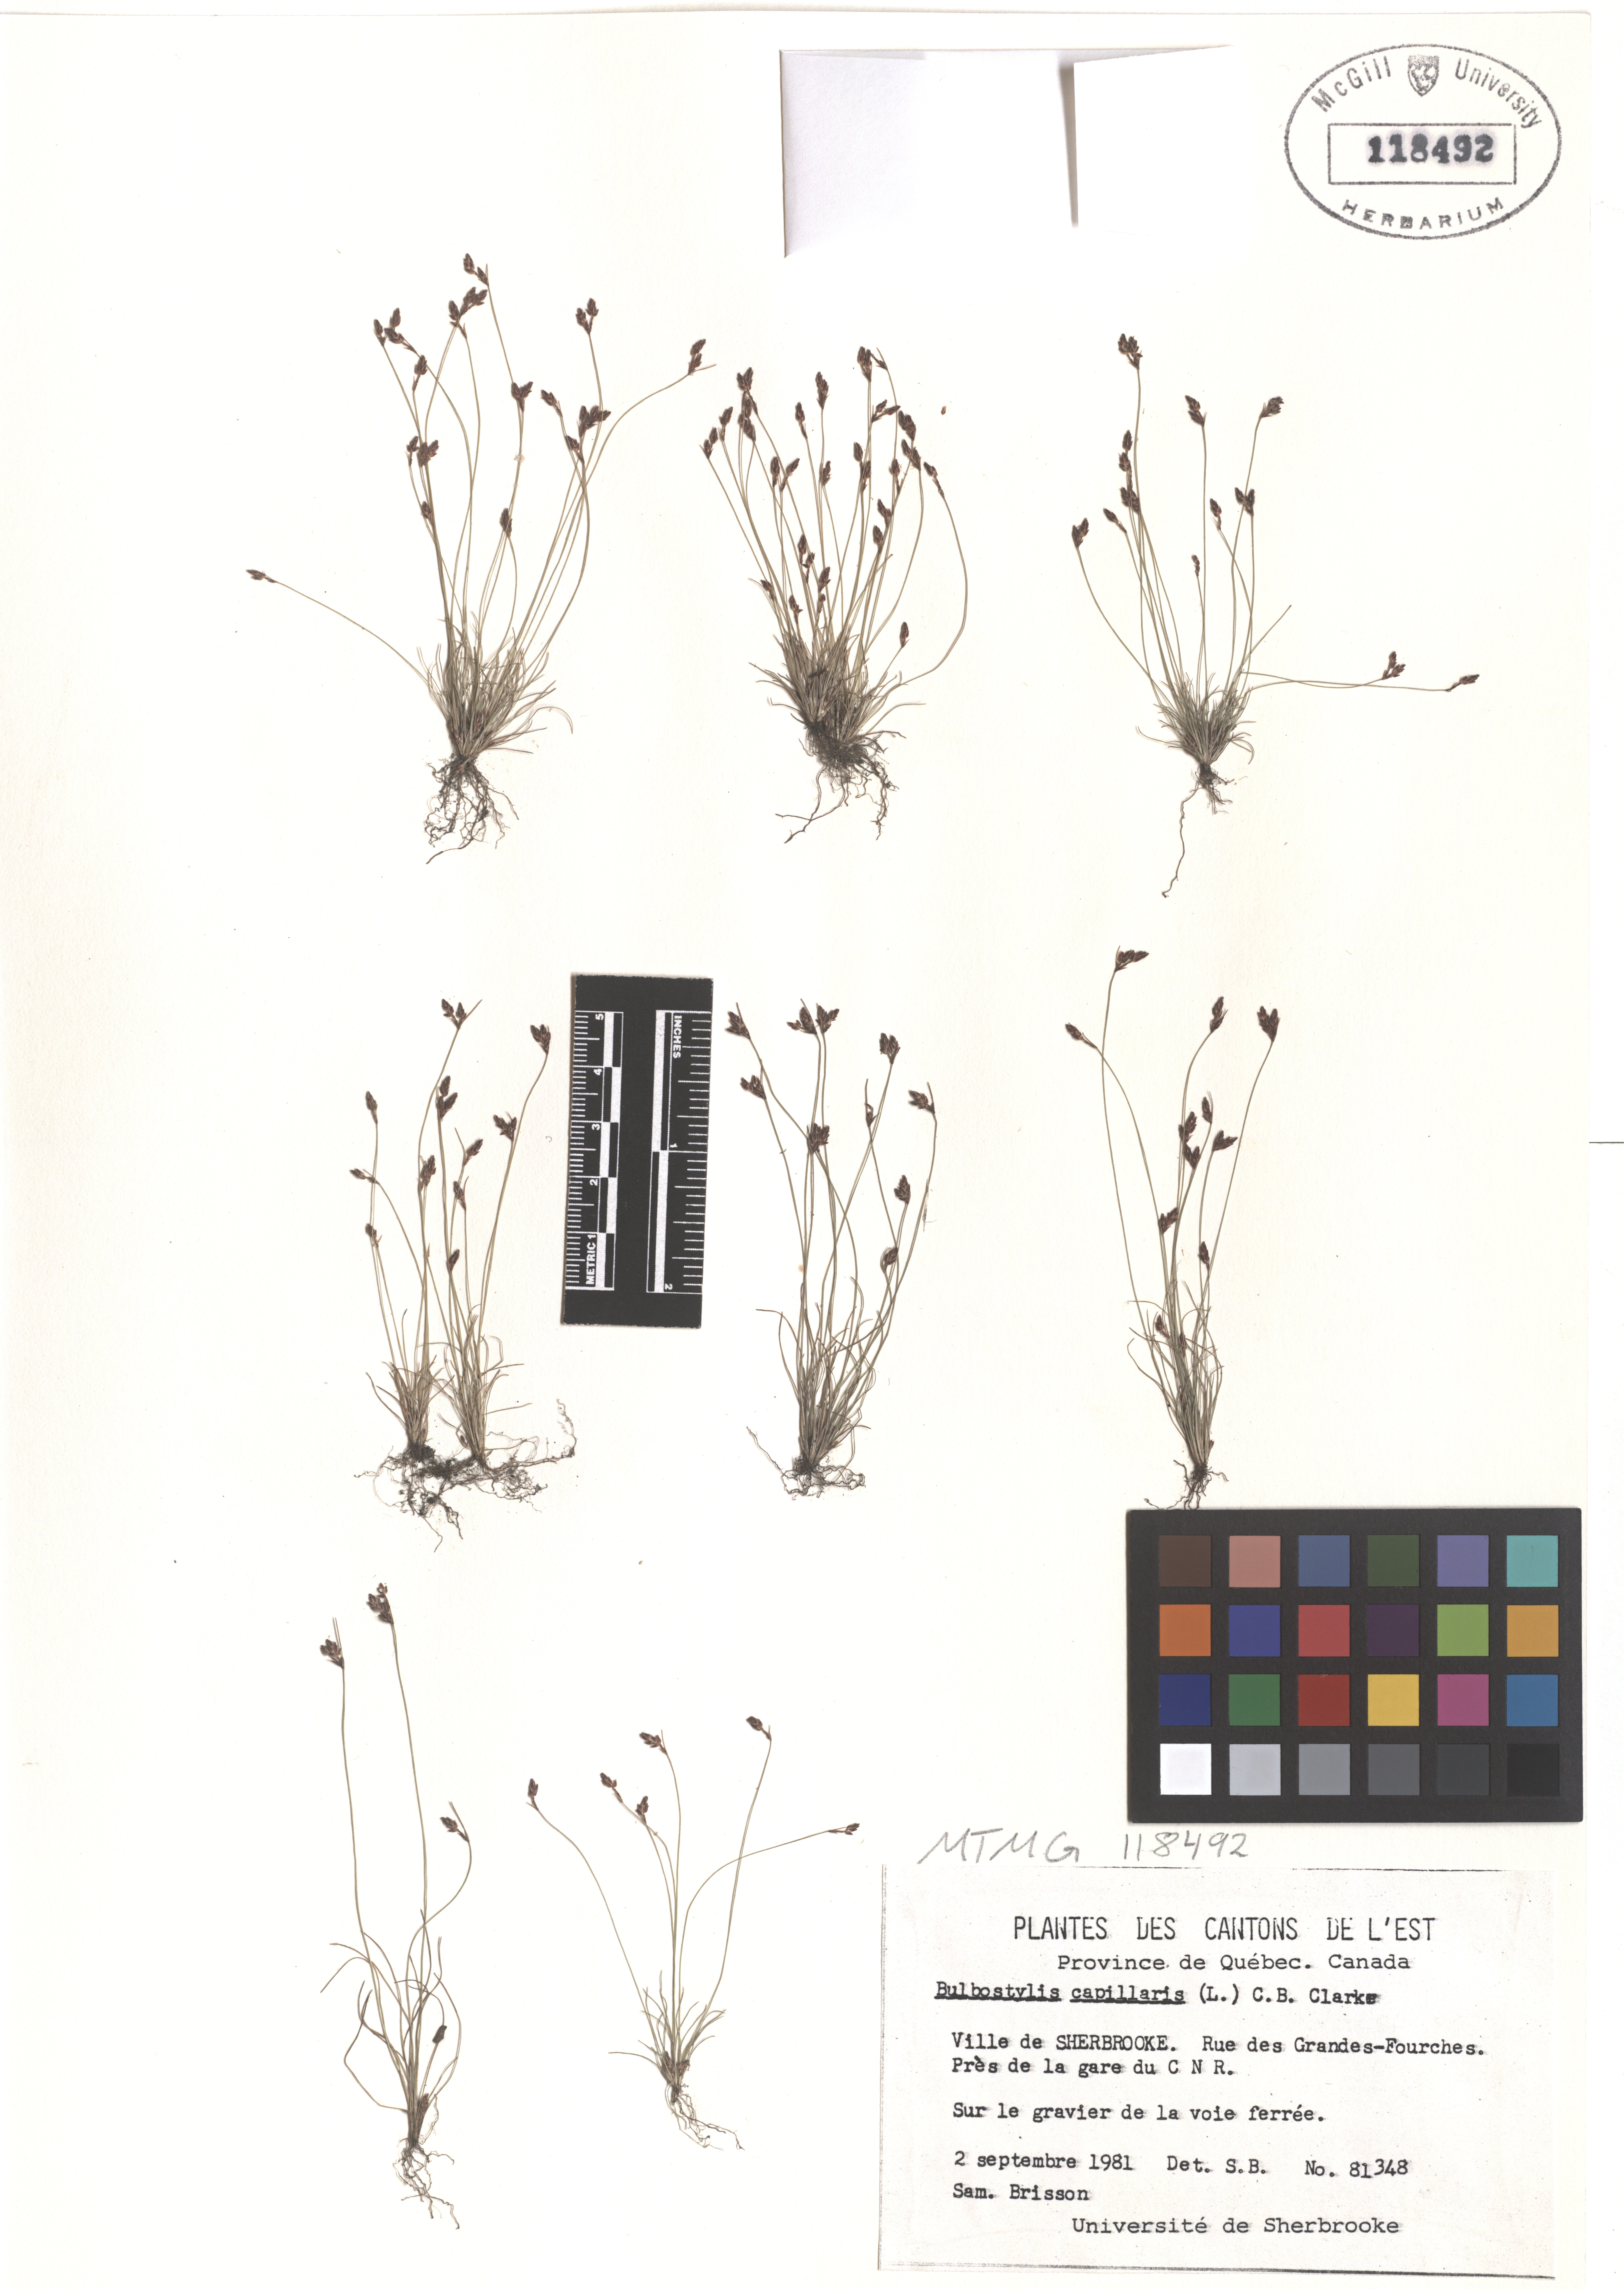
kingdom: Plantae
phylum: Tracheophyta
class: Liliopsida
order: Poales
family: Cyperaceae
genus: Bulbostylis
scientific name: Bulbostylis capillaris
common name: Densetuft hairsedge
